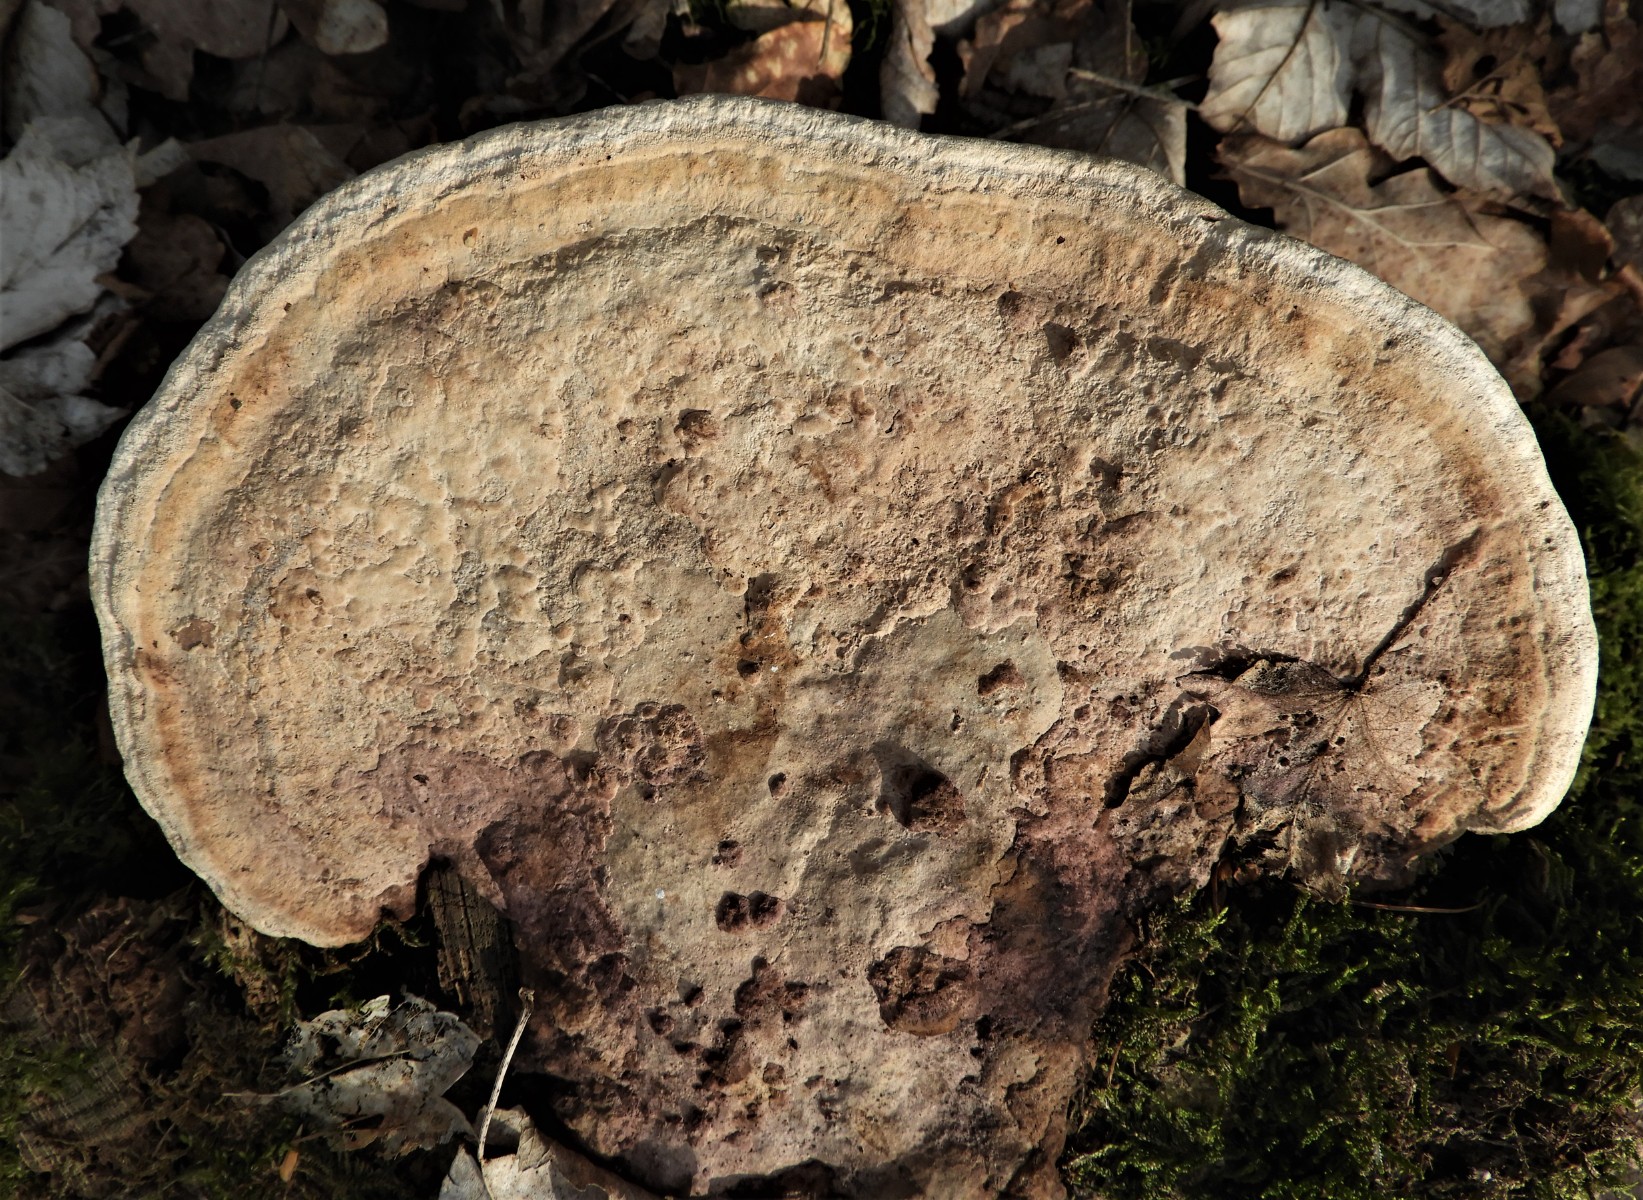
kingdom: Fungi
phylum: Basidiomycota
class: Agaricomycetes
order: Polyporales
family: Fomitopsidaceae
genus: Daedalea
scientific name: Daedalea quercina
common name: ege-labyrintsvamp
